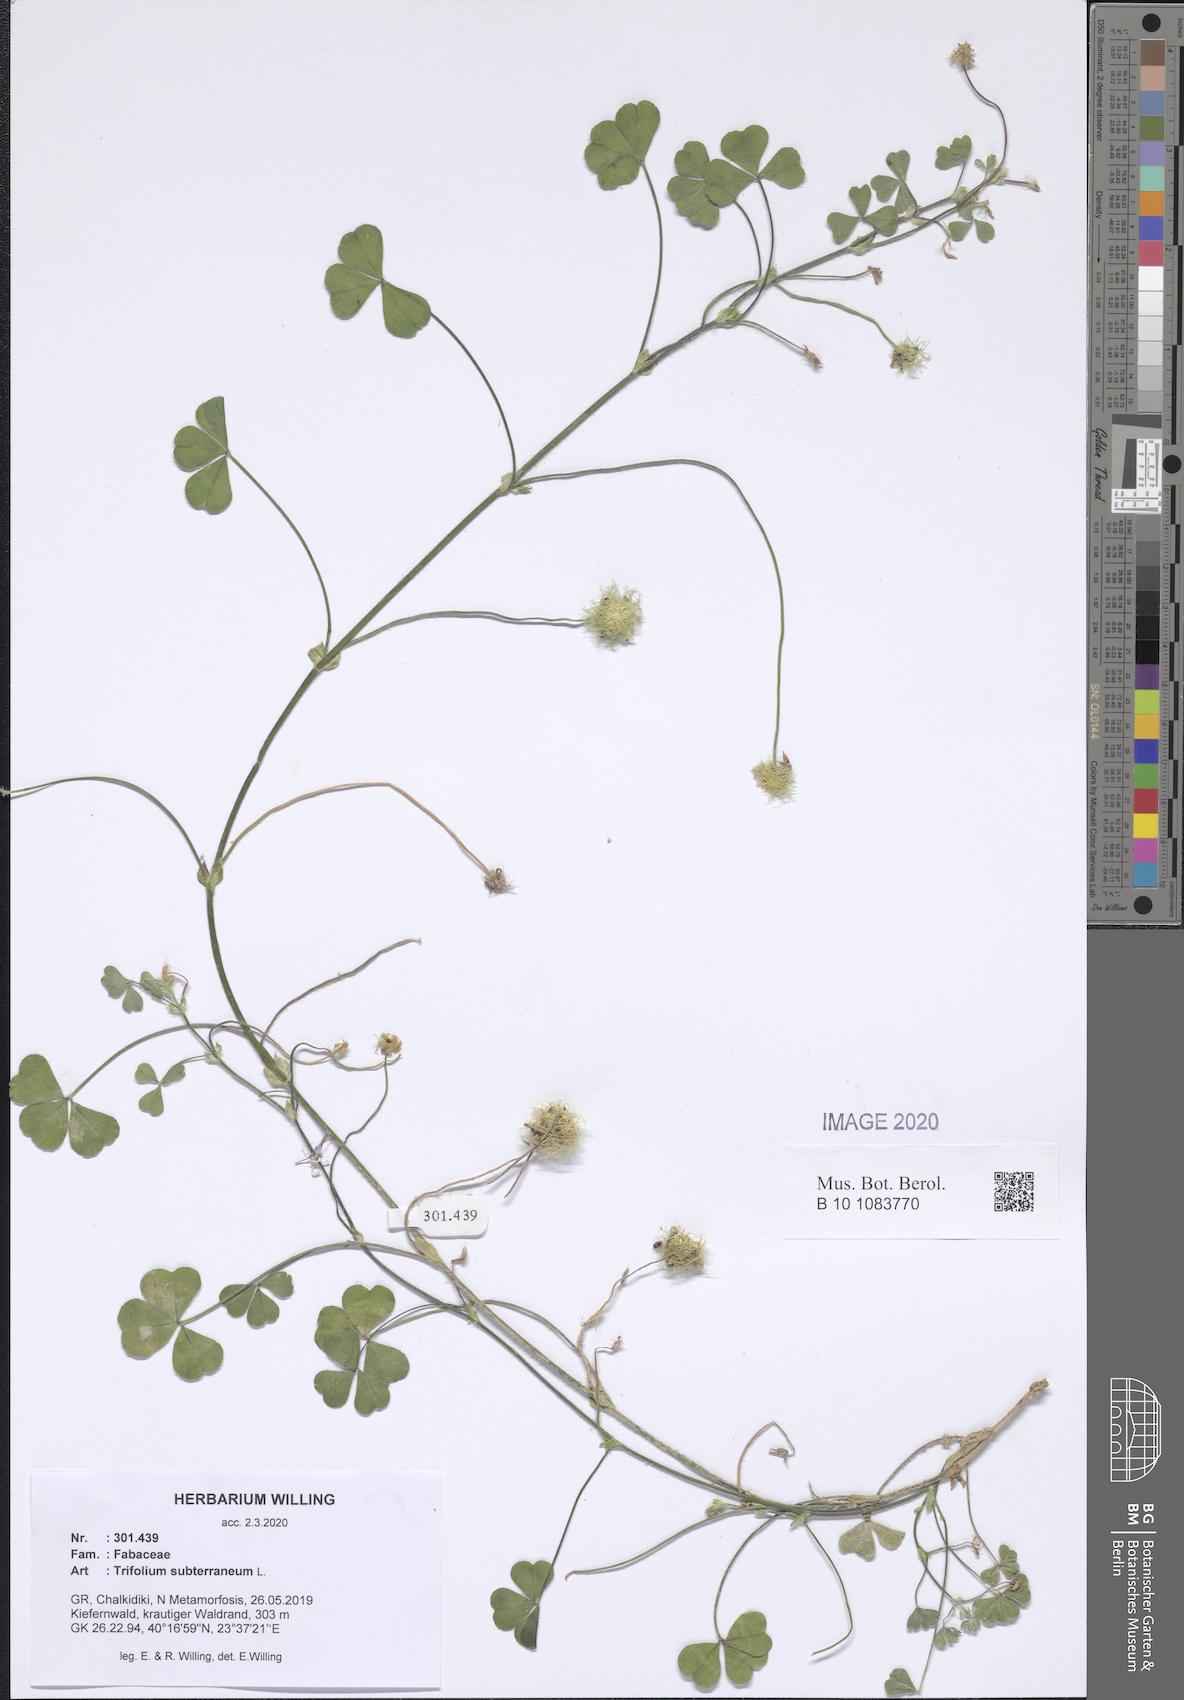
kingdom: Plantae
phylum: Tracheophyta
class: Magnoliopsida
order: Fabales
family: Fabaceae
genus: Trifolium
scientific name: Trifolium subterraneum
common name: Subterranean clover
